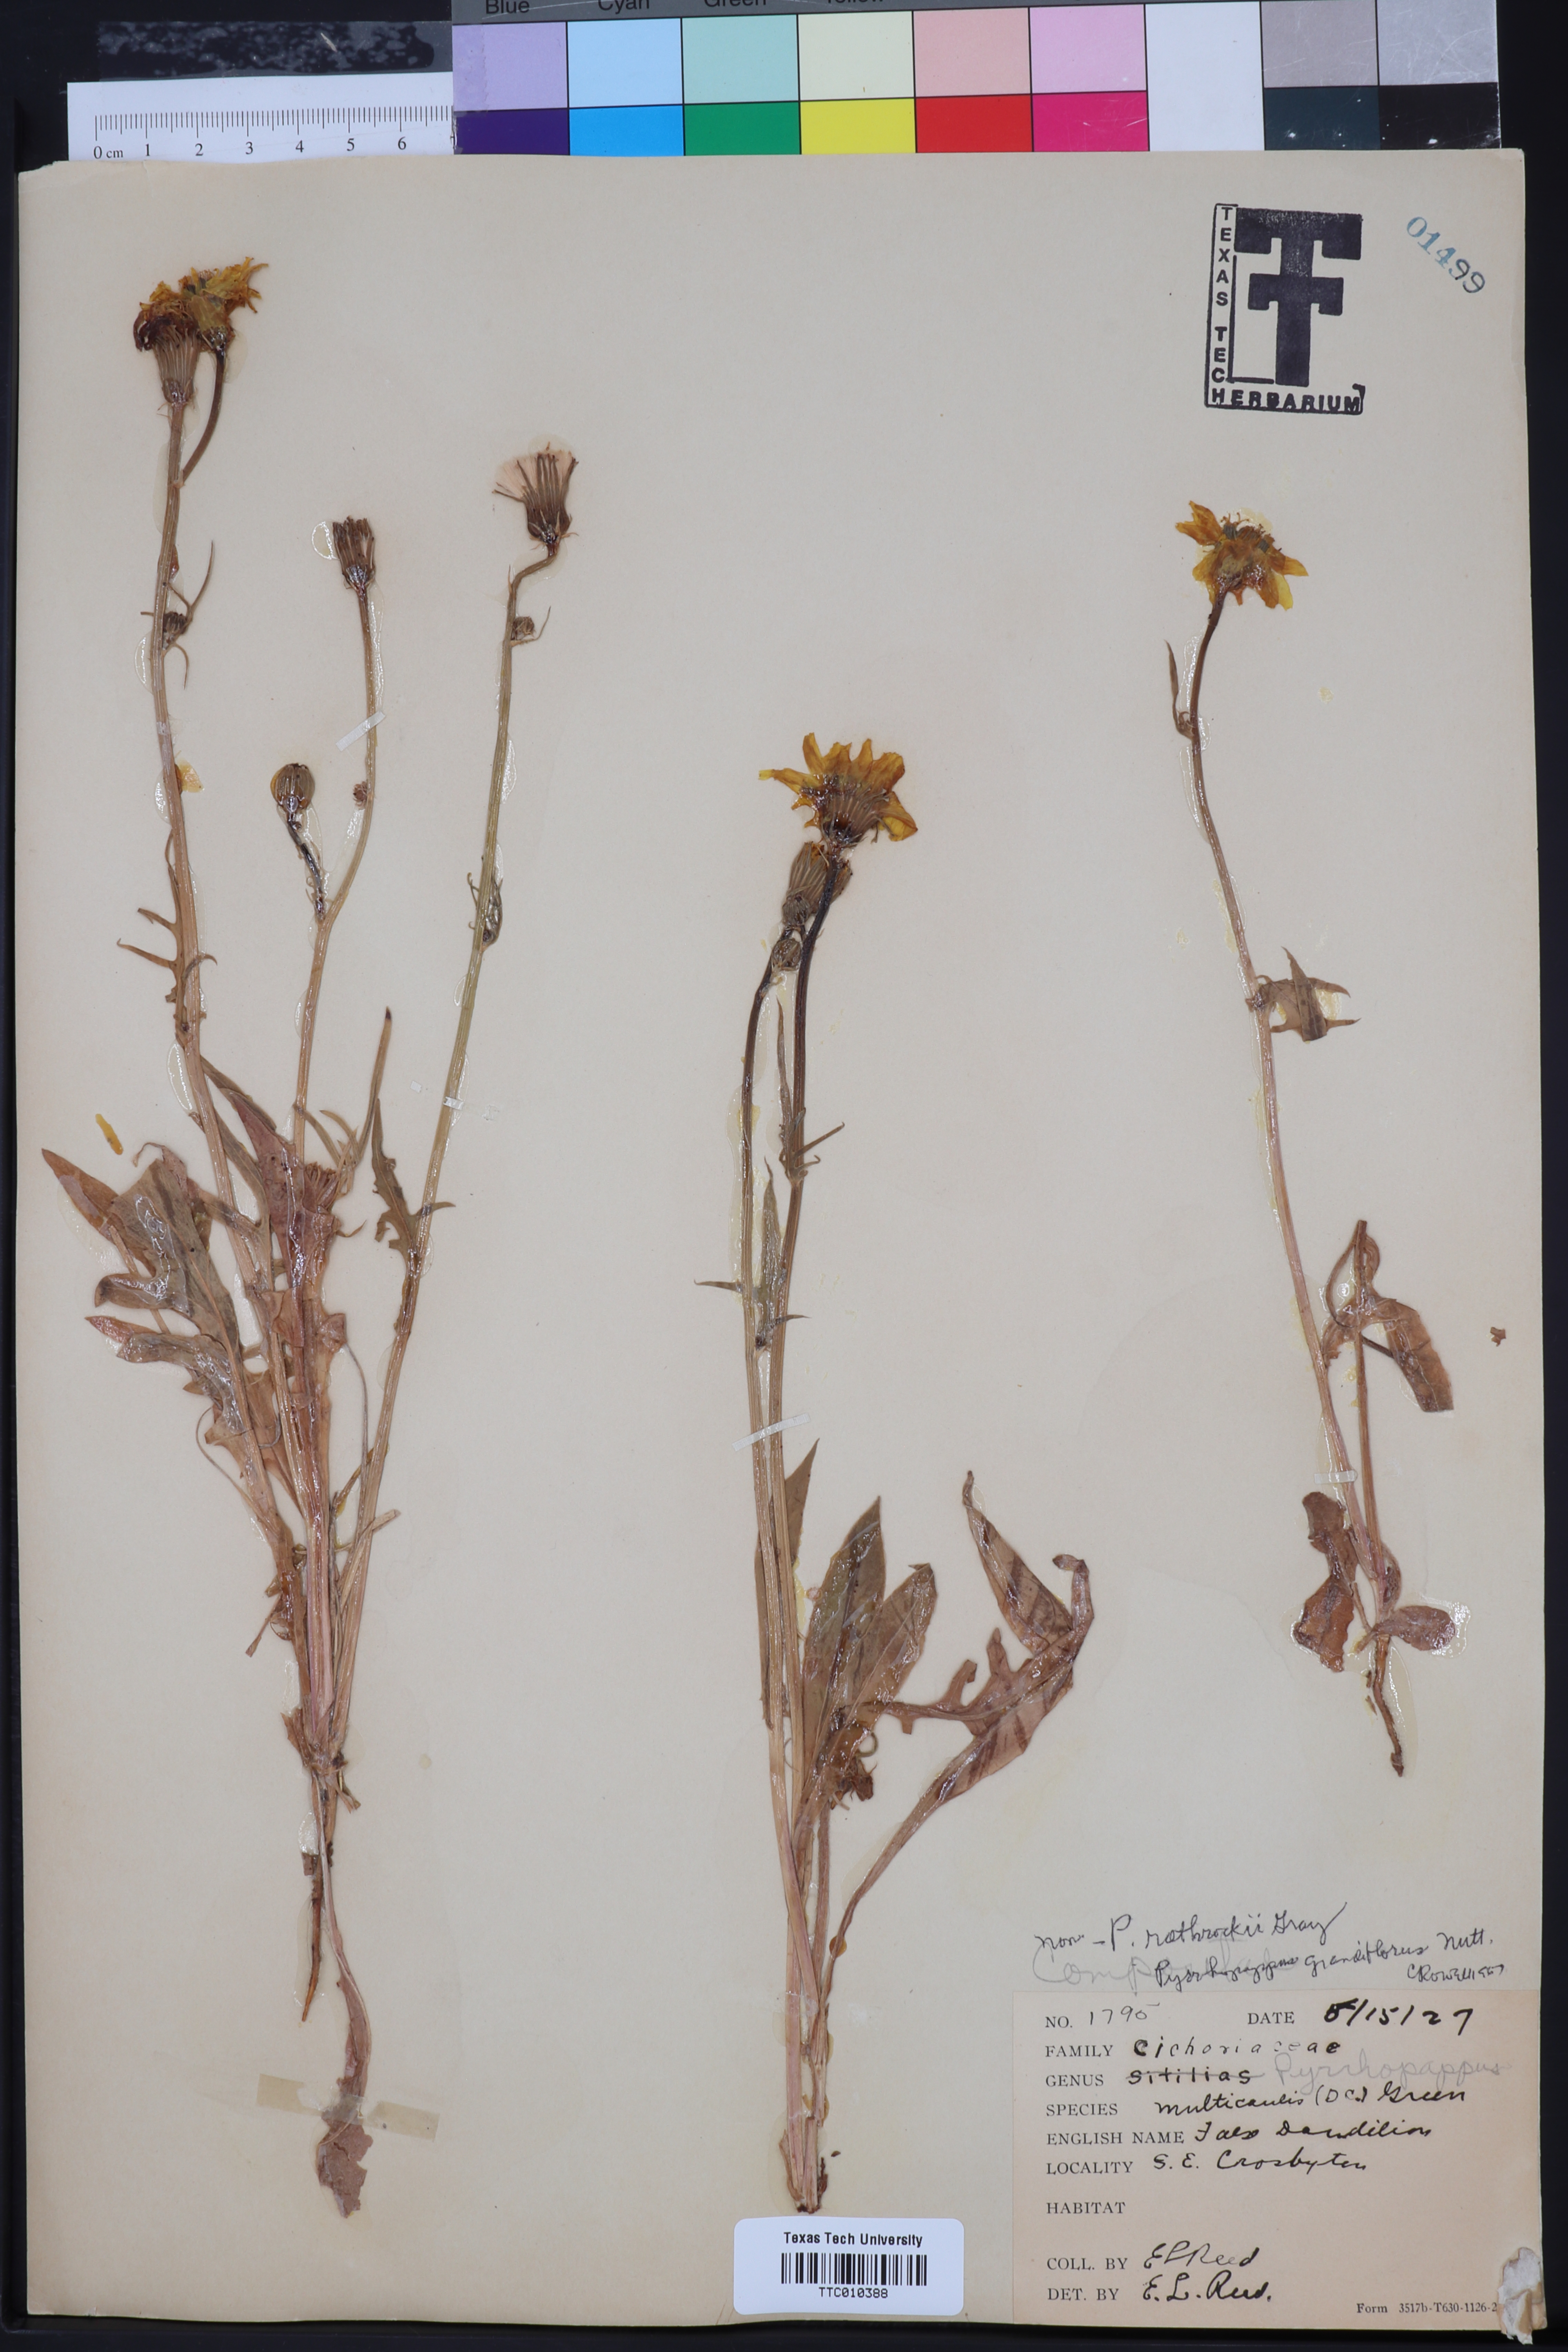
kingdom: Plantae
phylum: Tracheophyta
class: Magnoliopsida
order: Asterales
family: Asteraceae
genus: Pyrrhopappus
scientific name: Pyrrhopappus rothrockii
